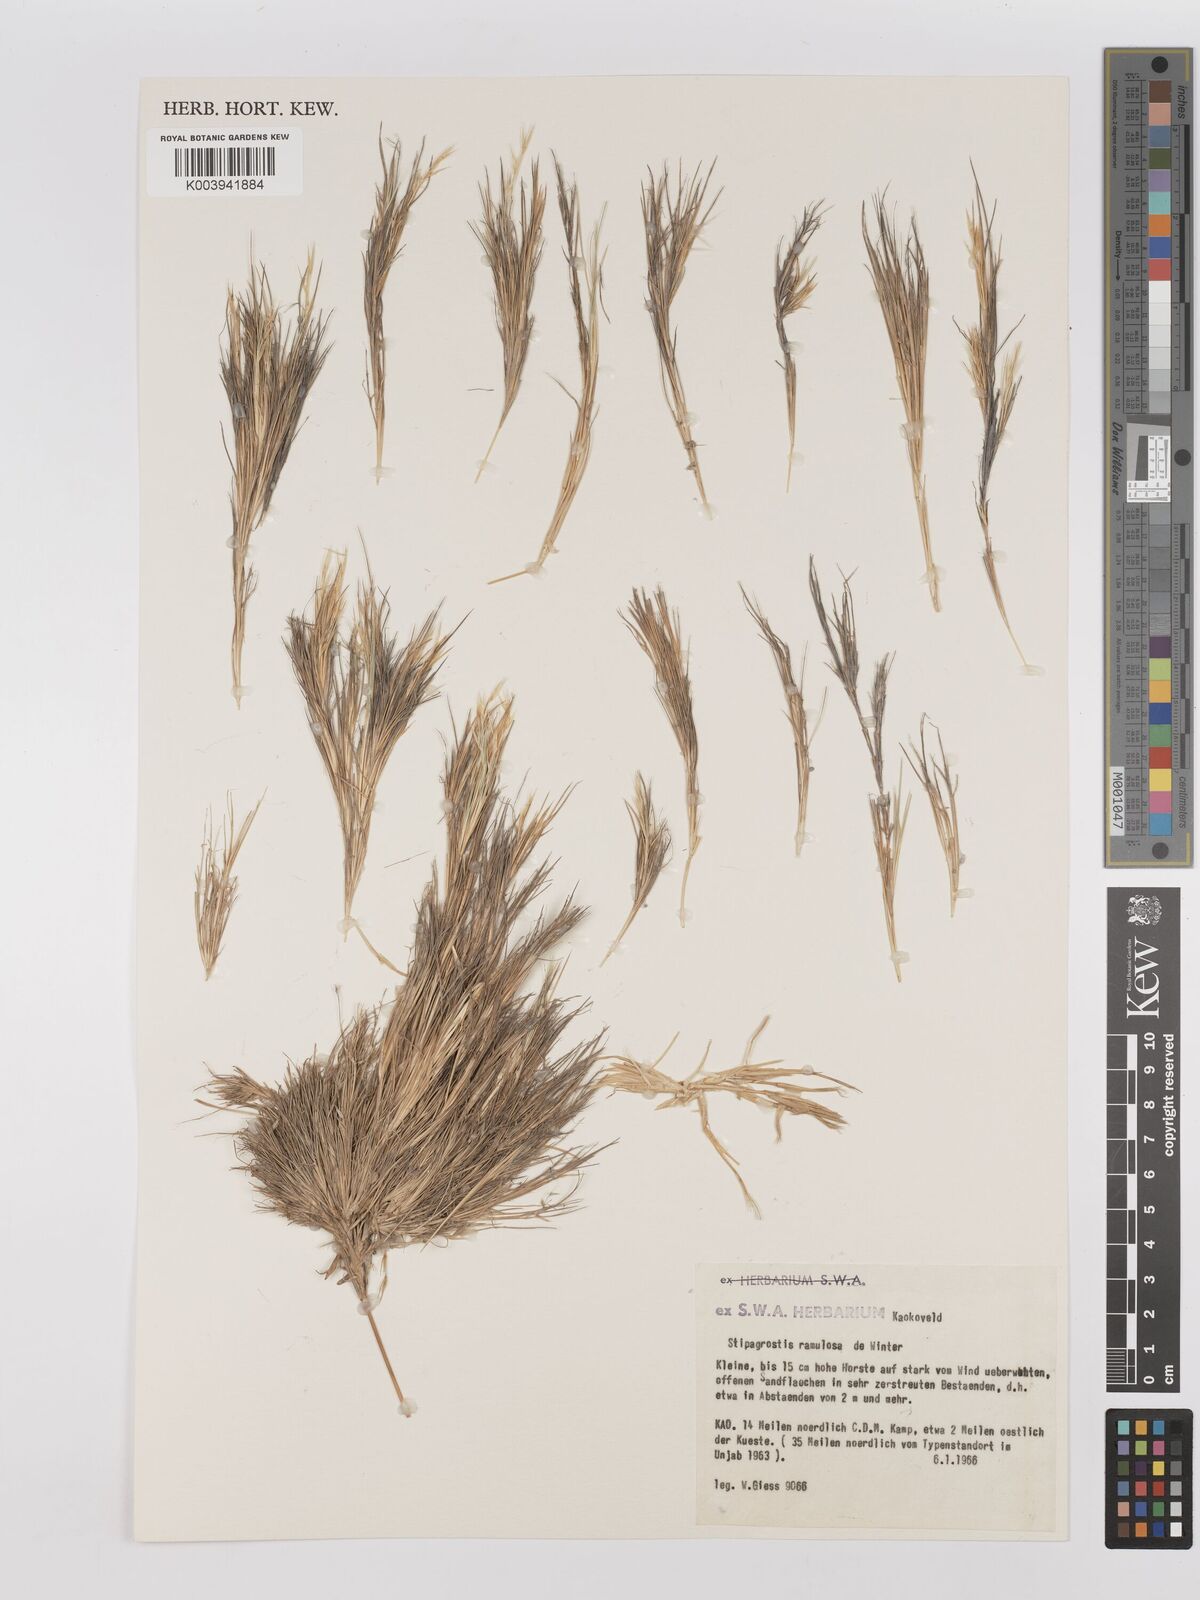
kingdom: Plantae
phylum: Tracheophyta
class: Liliopsida
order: Poales
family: Poaceae
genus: Stipagrostis
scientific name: Stipagrostis ramulosa
